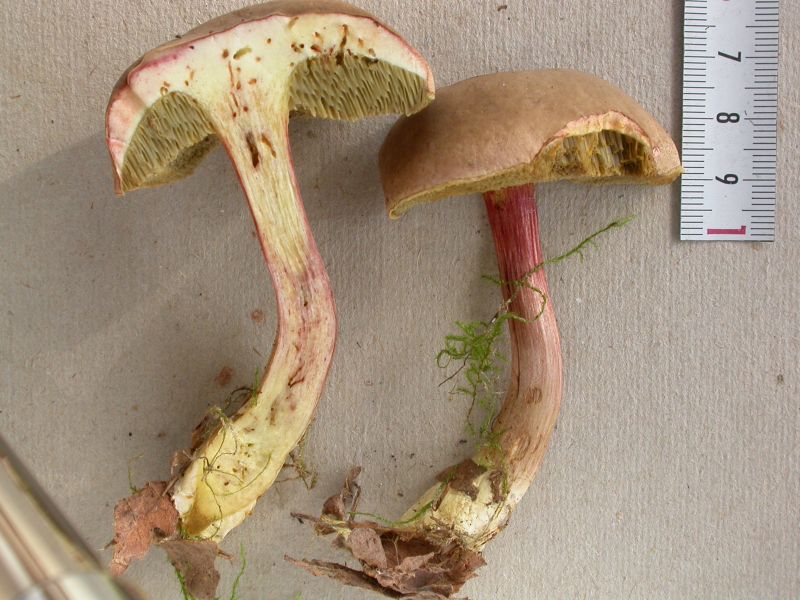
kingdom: Fungi
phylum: Basidiomycota
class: Agaricomycetes
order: Boletales
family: Boletaceae
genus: Xerocomellus
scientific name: Xerocomellus chrysenteron
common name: rødsprukken rørhat
